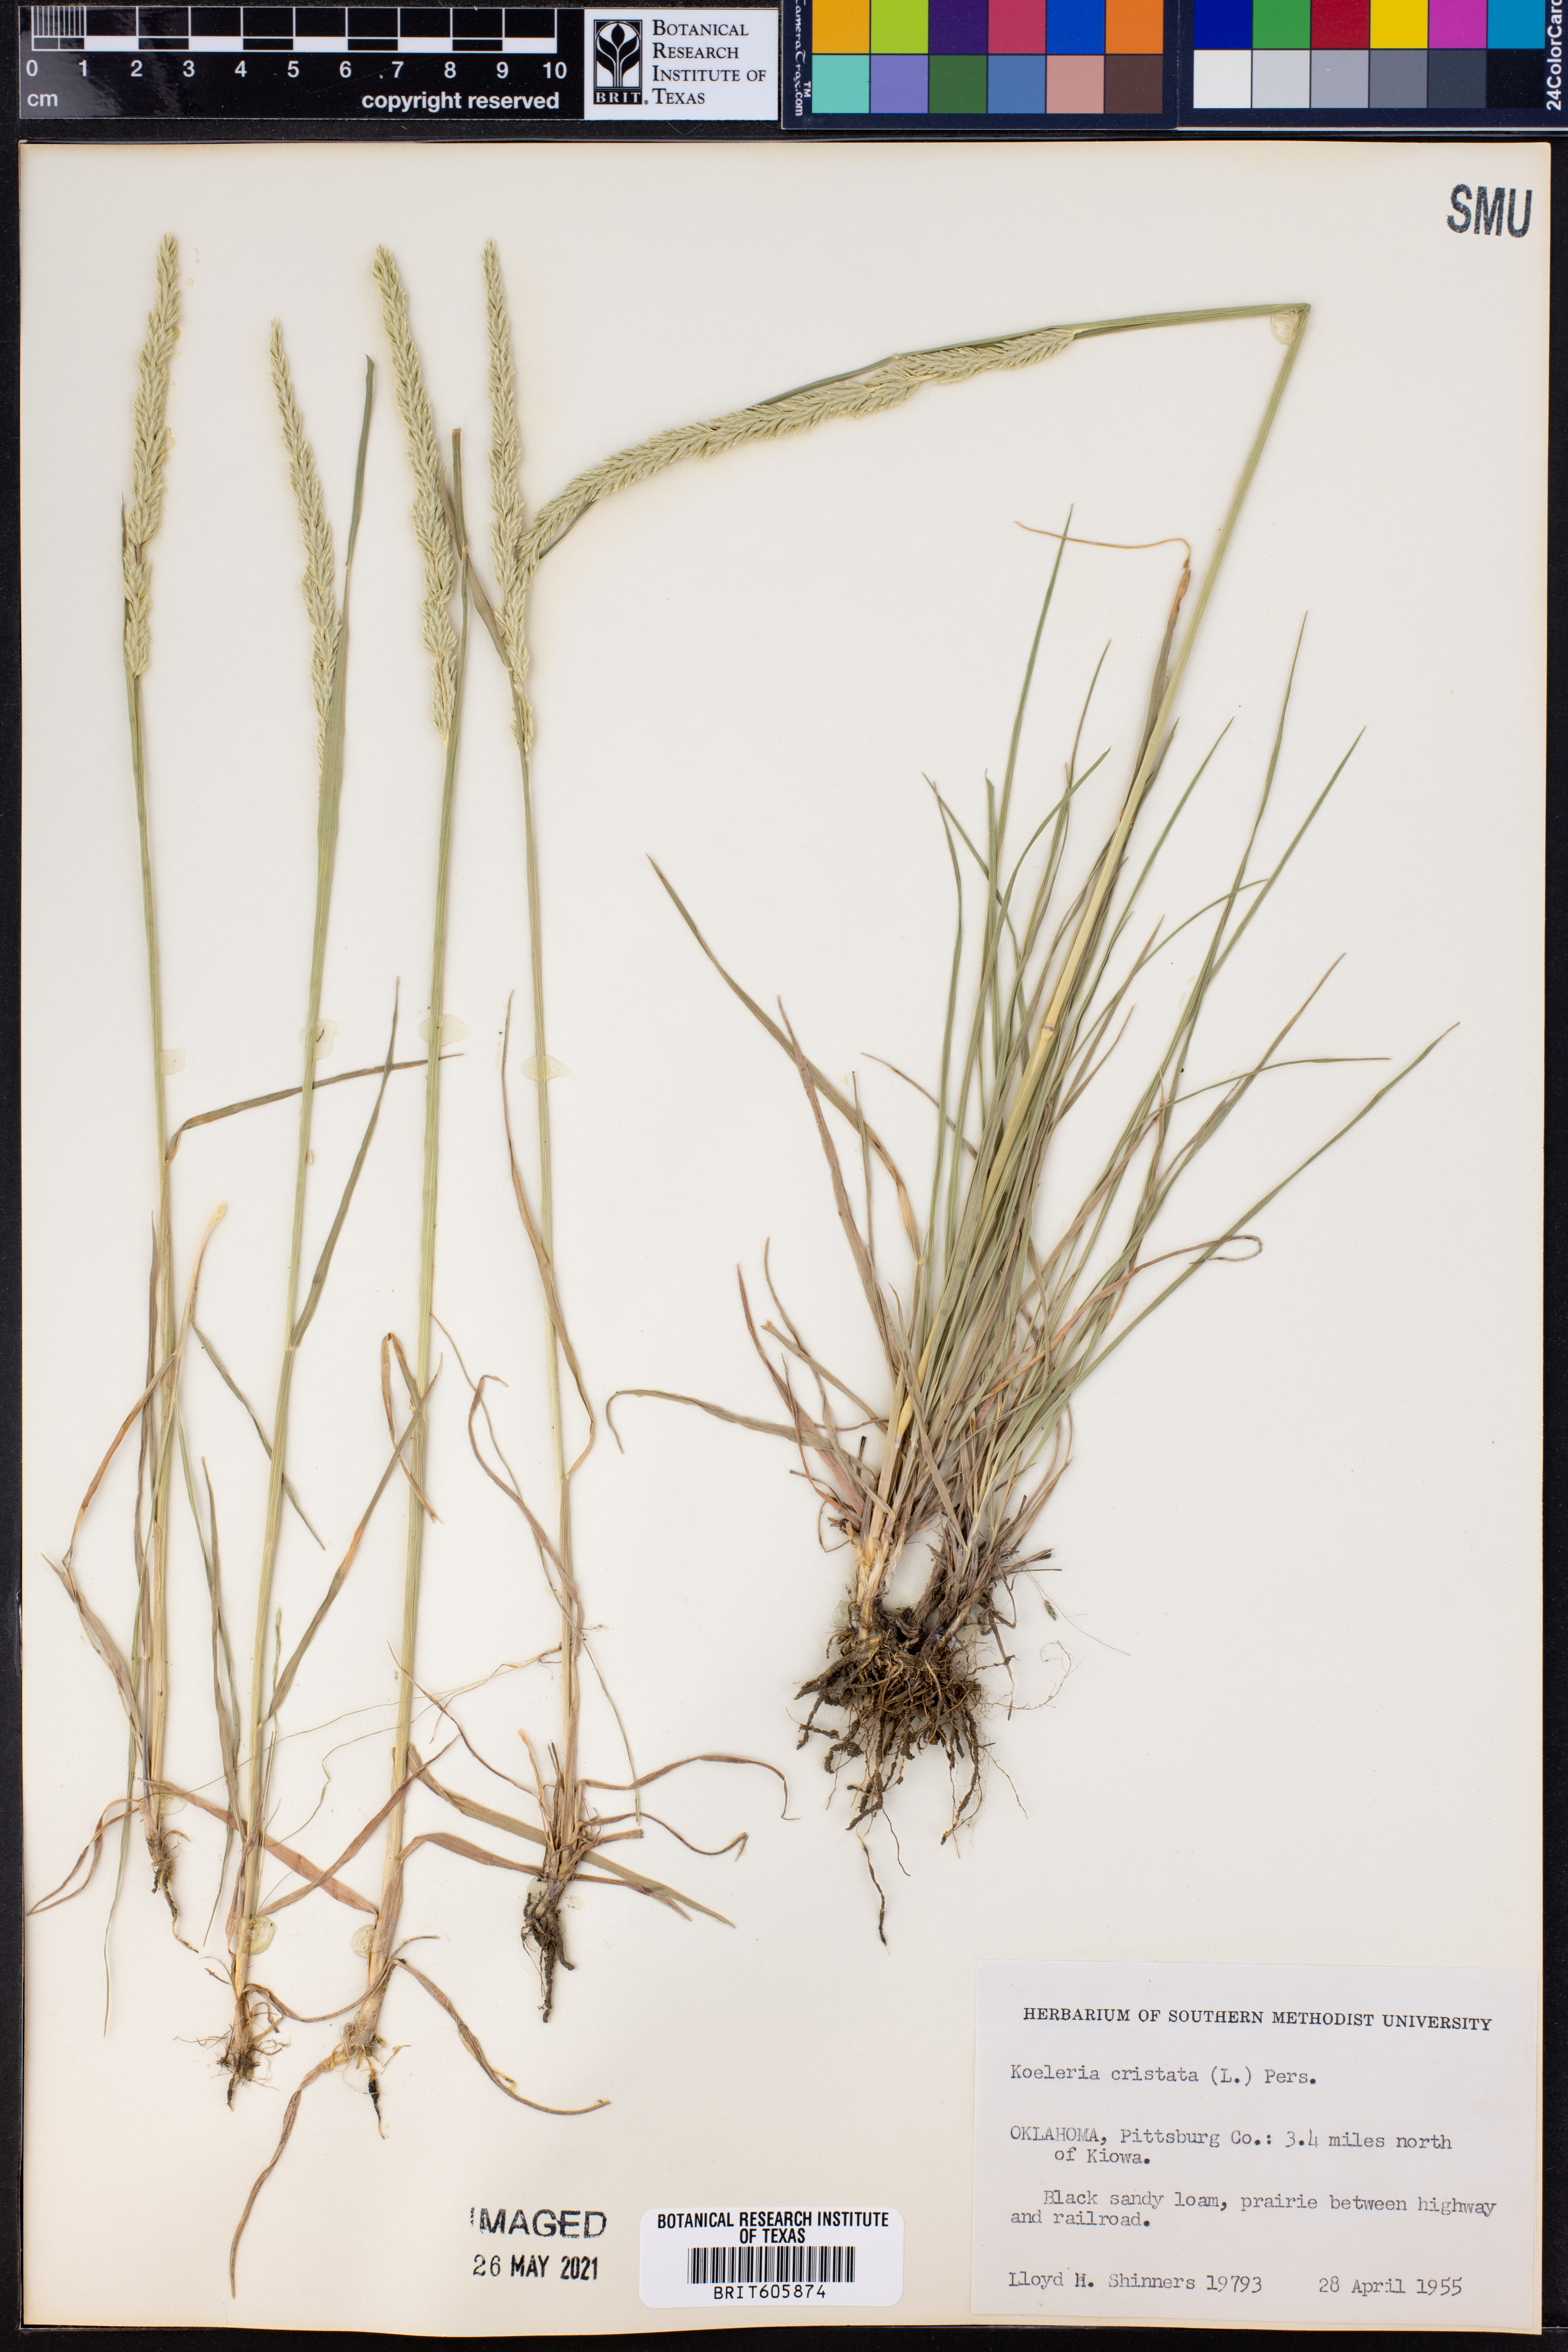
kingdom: Plantae
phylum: Tracheophyta
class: Liliopsida
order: Poales
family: Poaceae
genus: Koeleria
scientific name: Koeleria cristata
